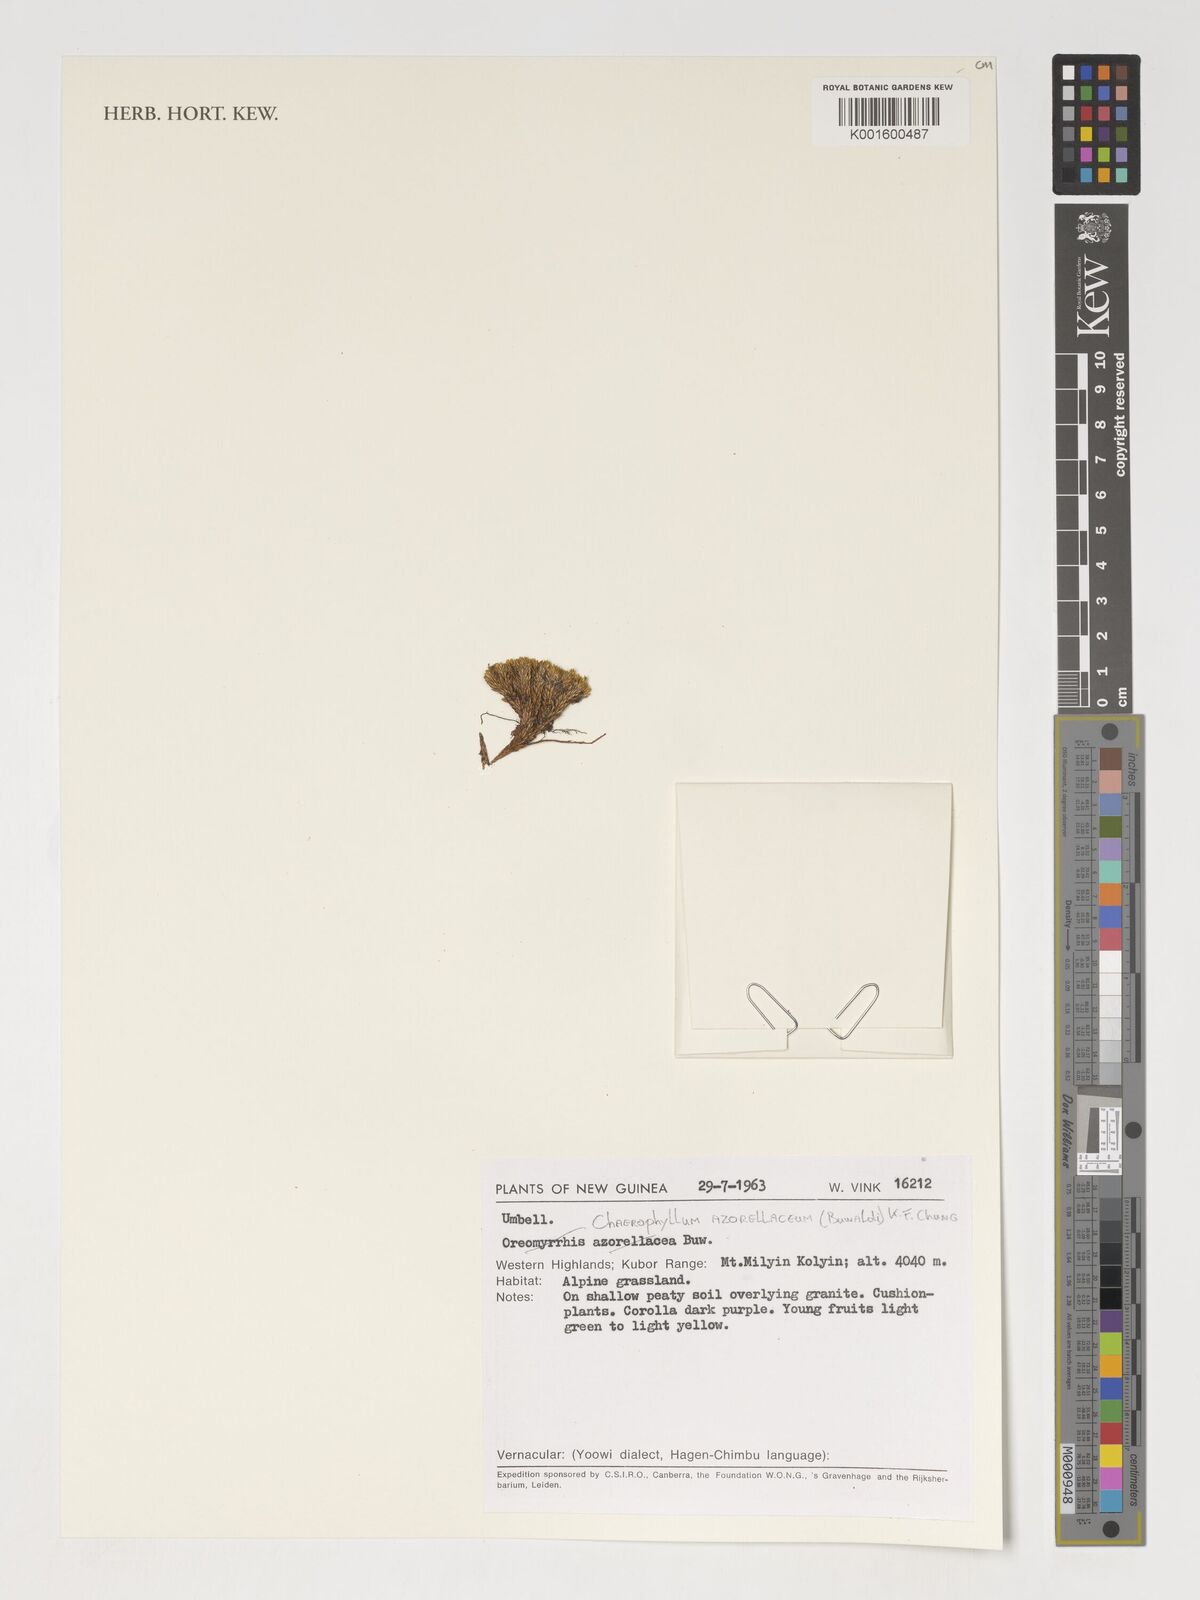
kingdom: Plantae
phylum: Tracheophyta
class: Magnoliopsida
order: Apiales
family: Apiaceae
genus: Chaerophyllum
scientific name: Chaerophyllum azorellaceum
